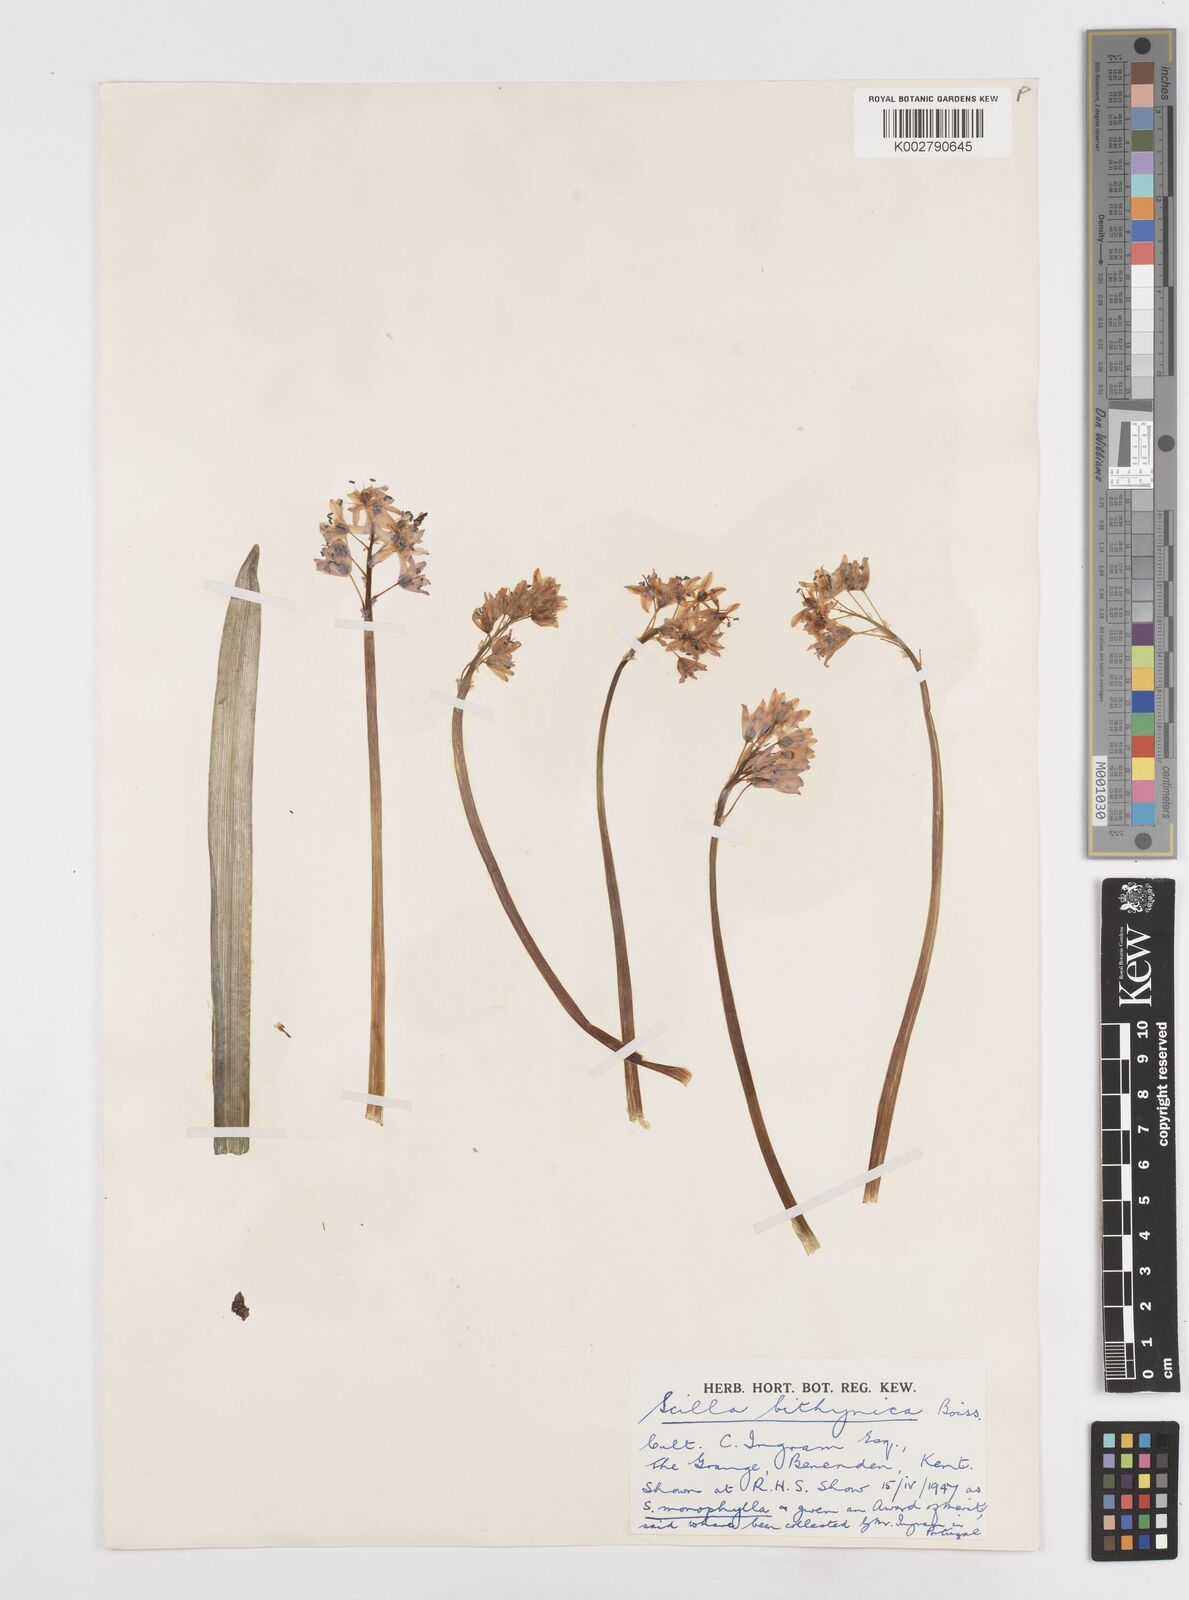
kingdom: Plantae
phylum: Tracheophyta
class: Liliopsida
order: Asparagales
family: Asparagaceae
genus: Scilla
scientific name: Scilla bithynica
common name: Turkish squill
